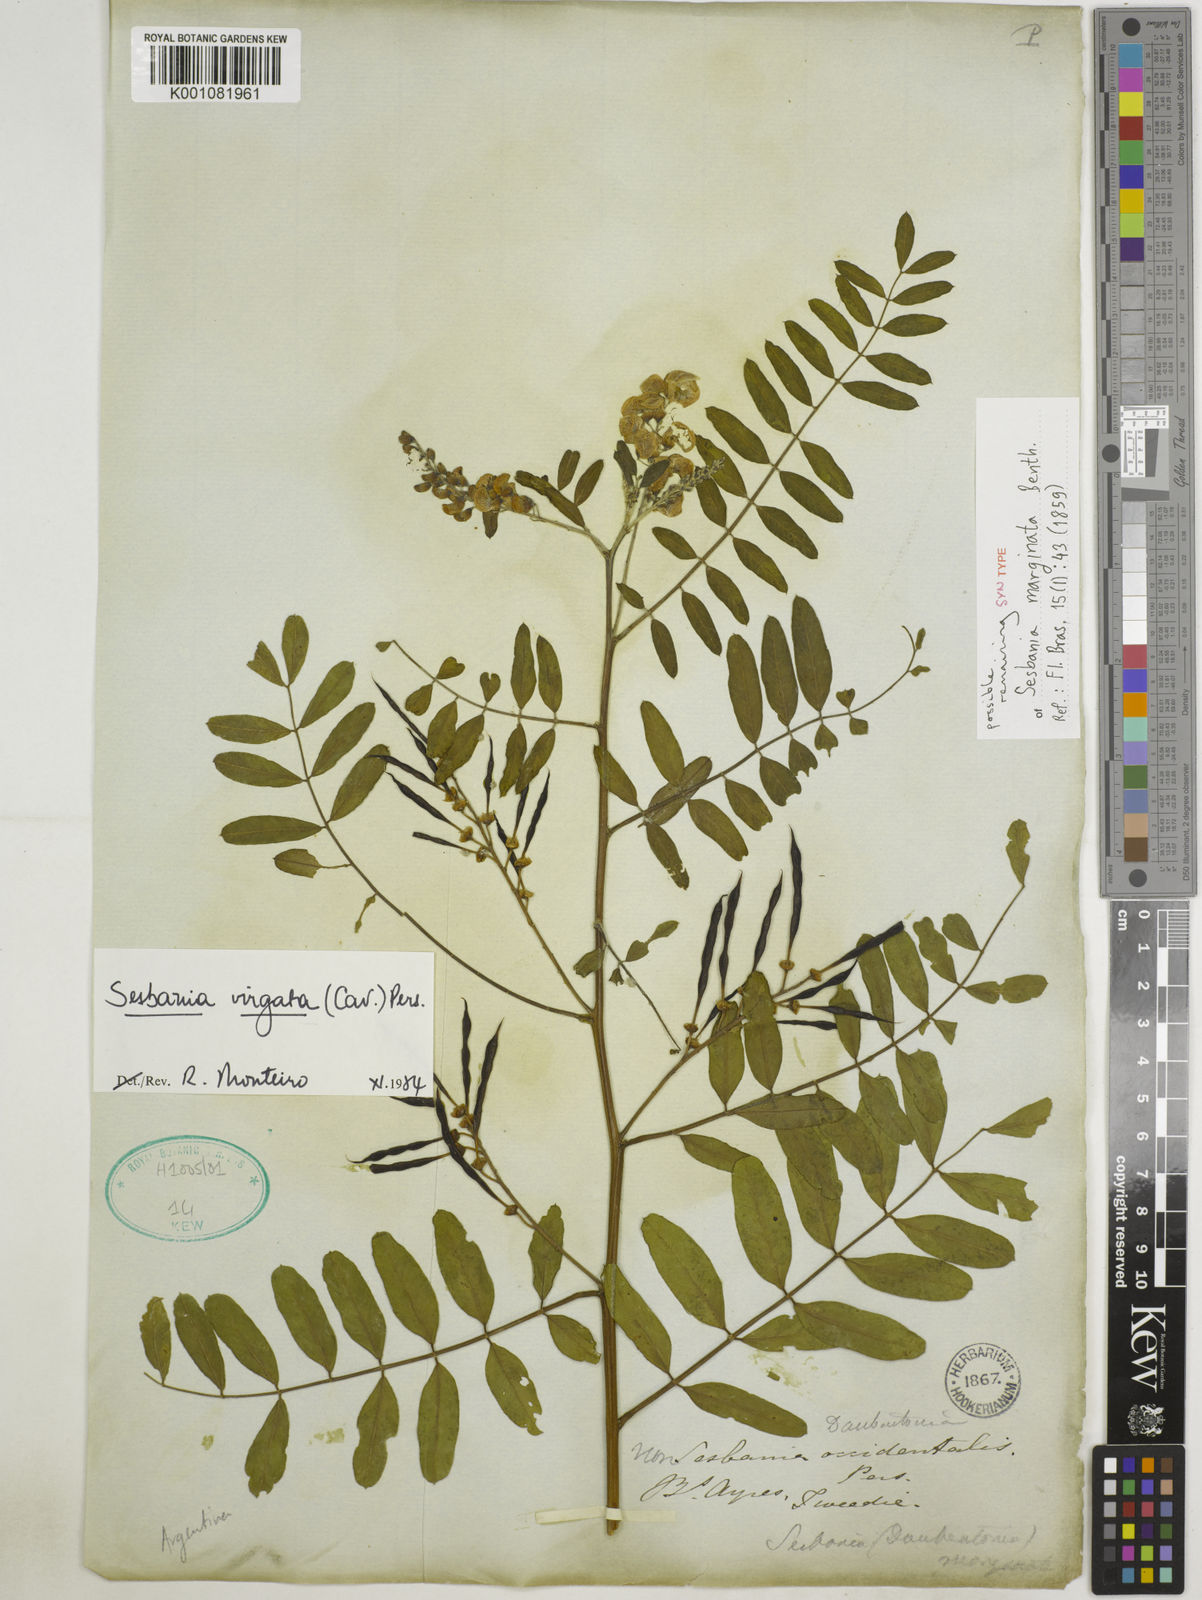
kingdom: Plantae
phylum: Tracheophyta
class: Magnoliopsida
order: Fabales
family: Fabaceae
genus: Sesbania
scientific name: Sesbania
